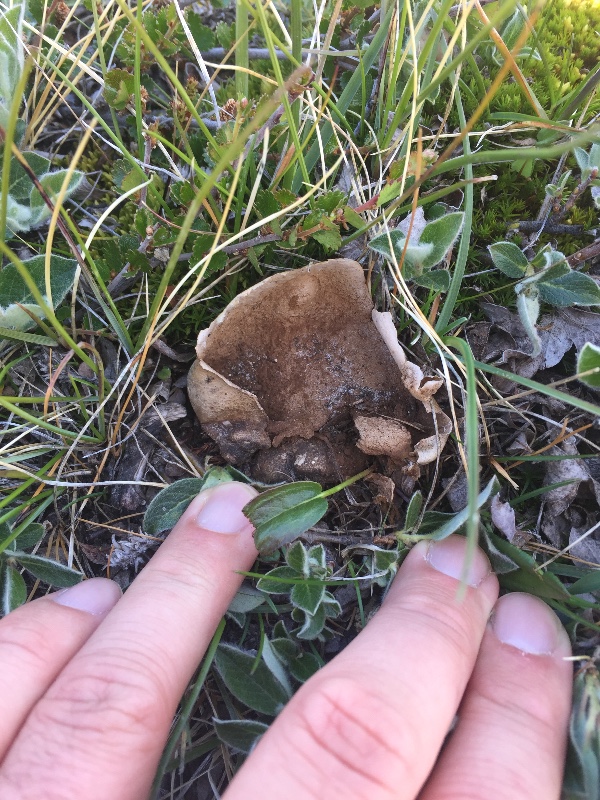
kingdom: Fungi
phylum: Basidiomycota
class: Agaricomycetes
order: Agaricales
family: Agaricaceae
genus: Lycoperdon
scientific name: Lycoperdon
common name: støvbold
